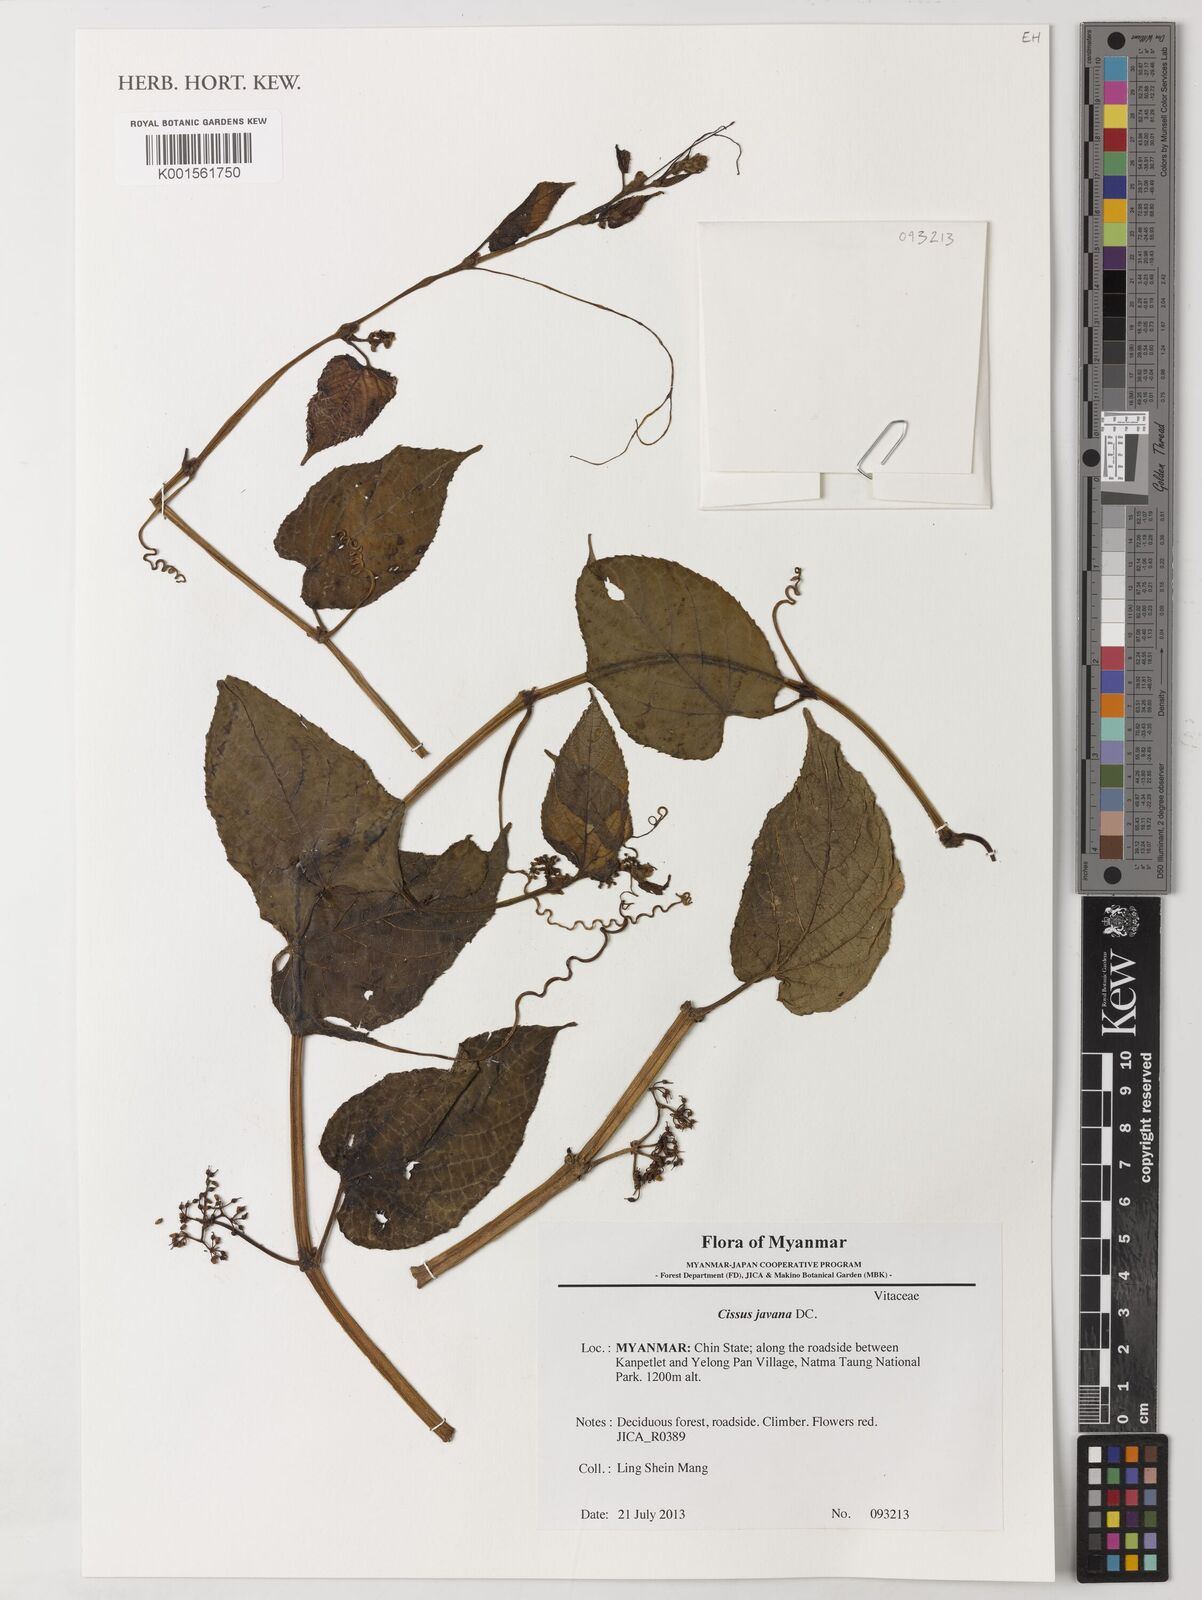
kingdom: Plantae
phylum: Tracheophyta
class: Magnoliopsida
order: Vitales
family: Vitaceae
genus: Cissus
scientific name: Cissus discolor
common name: Climbing-begonia
